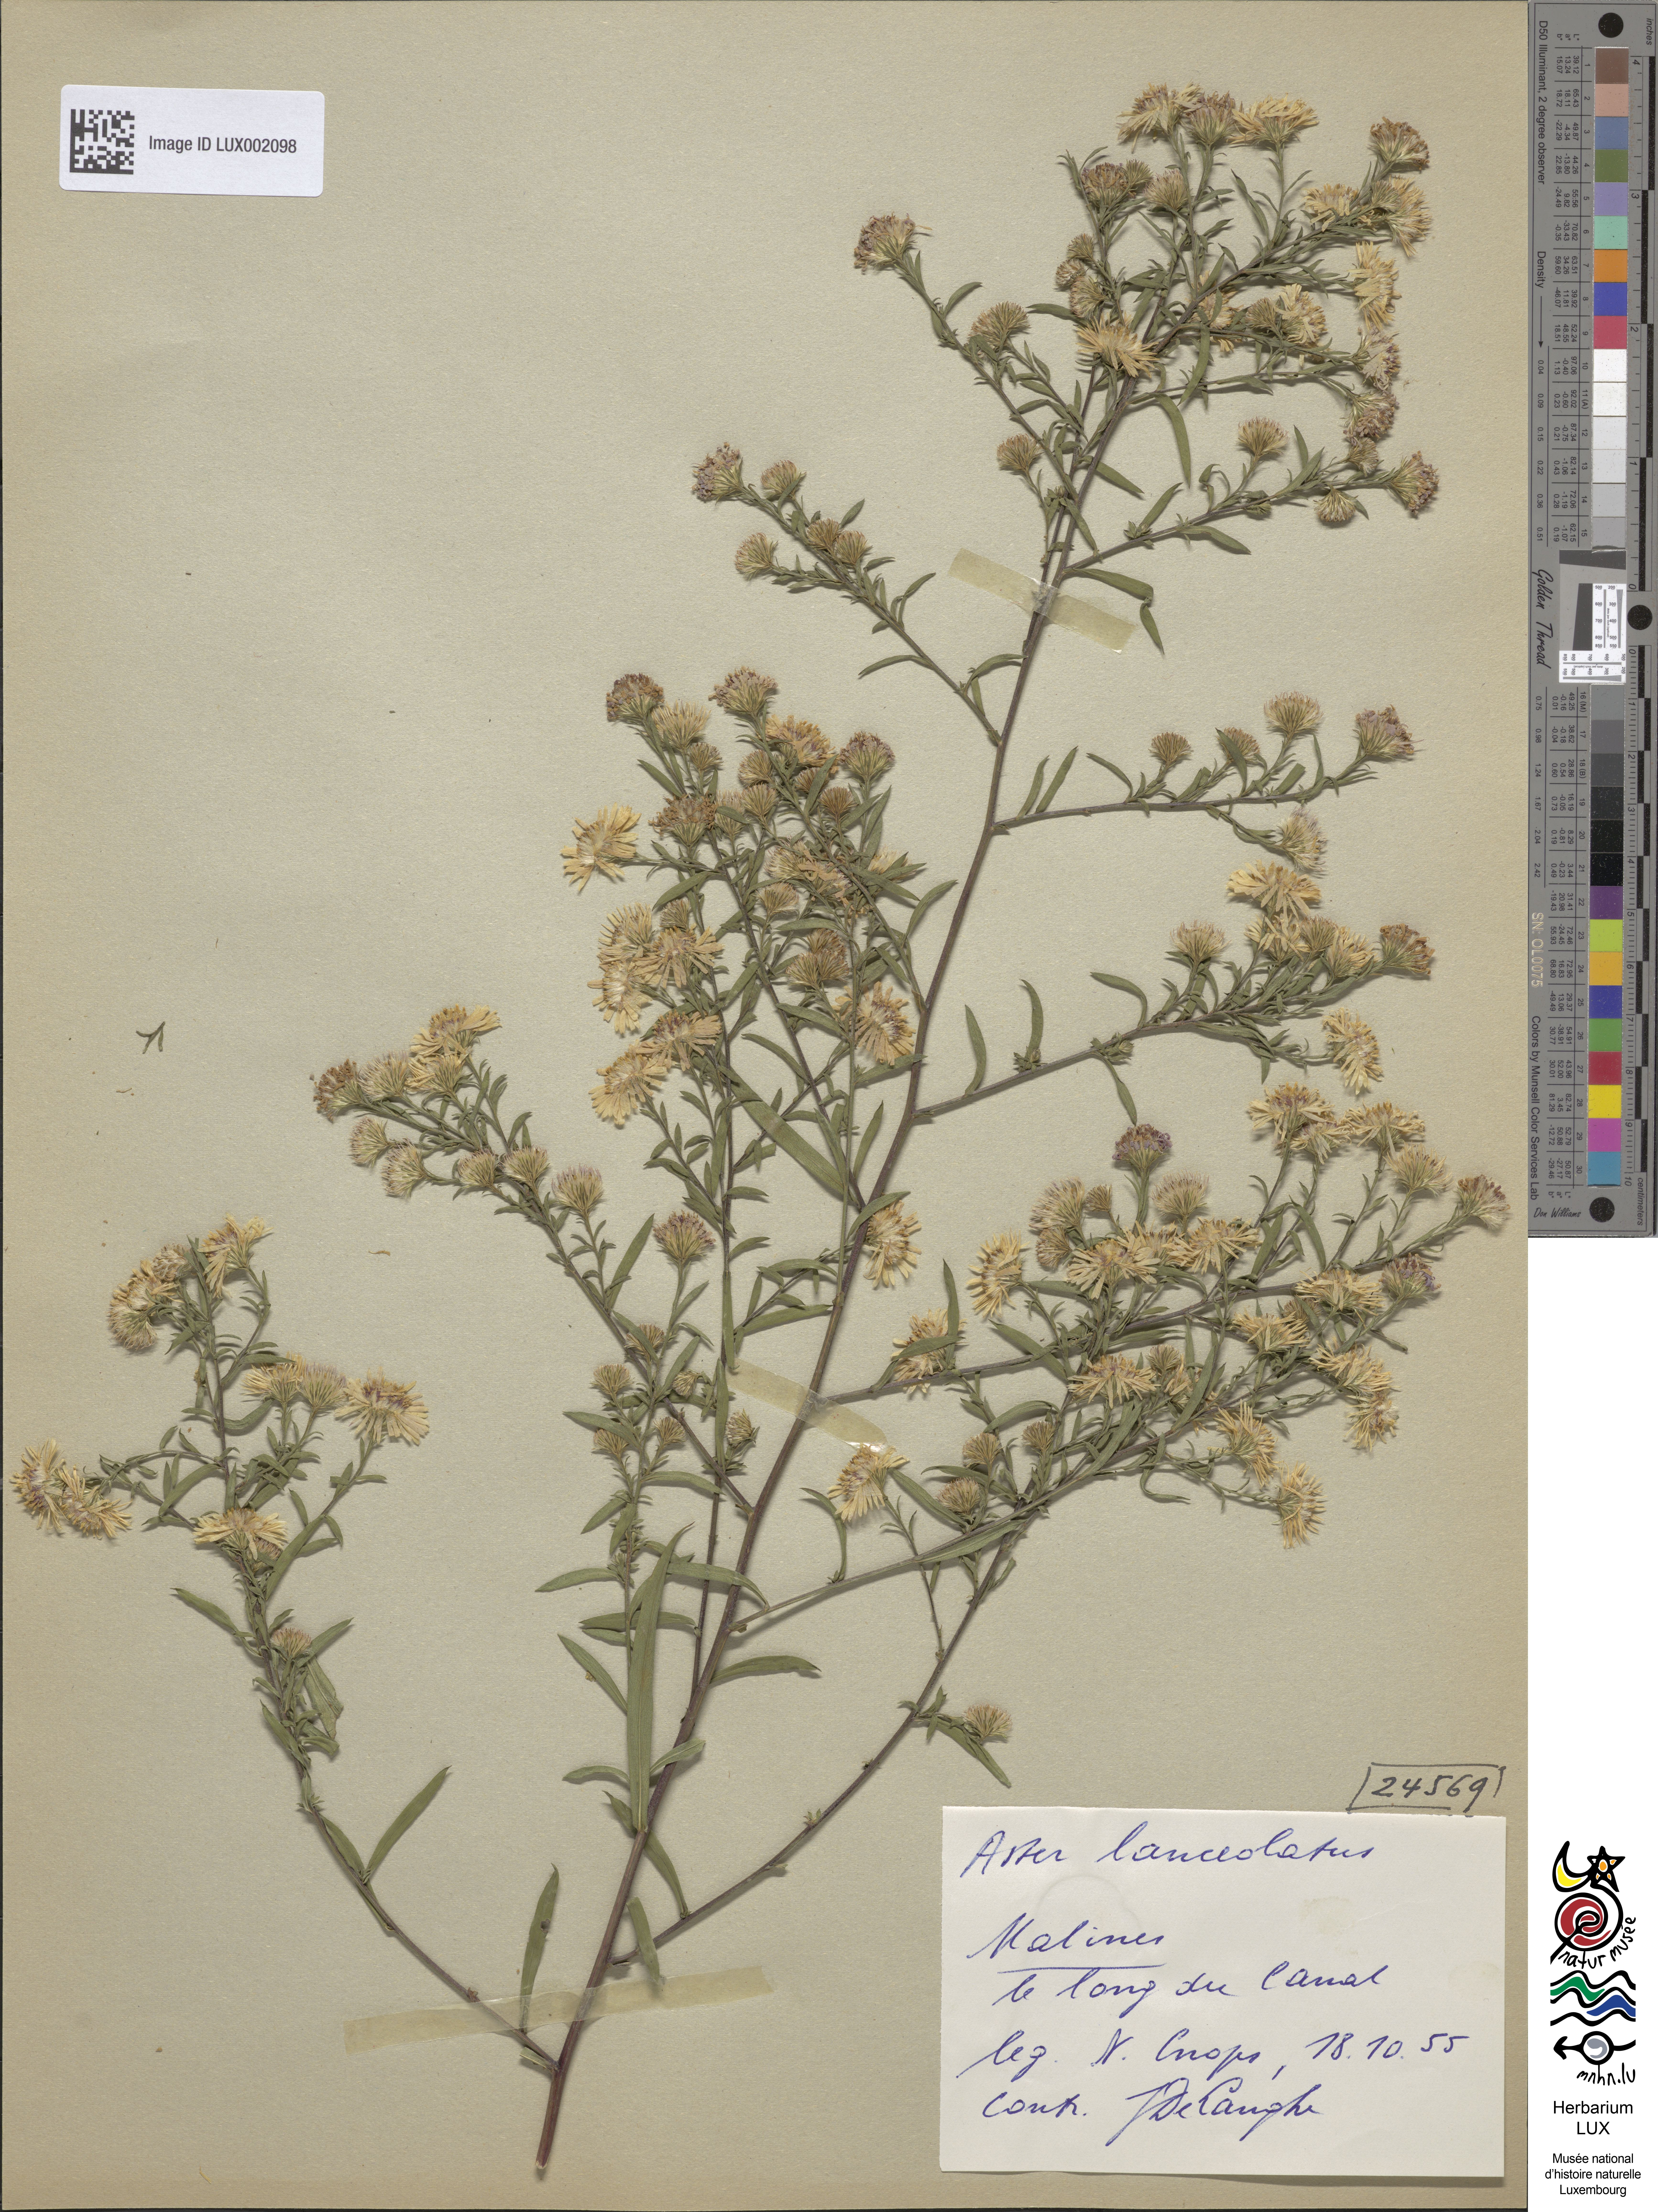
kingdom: Plantae
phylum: Tracheophyta
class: Magnoliopsida
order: Asterales
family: Asteraceae
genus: Symphyotrichum
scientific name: Symphyotrichum lanceolatum
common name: Panicled aster
